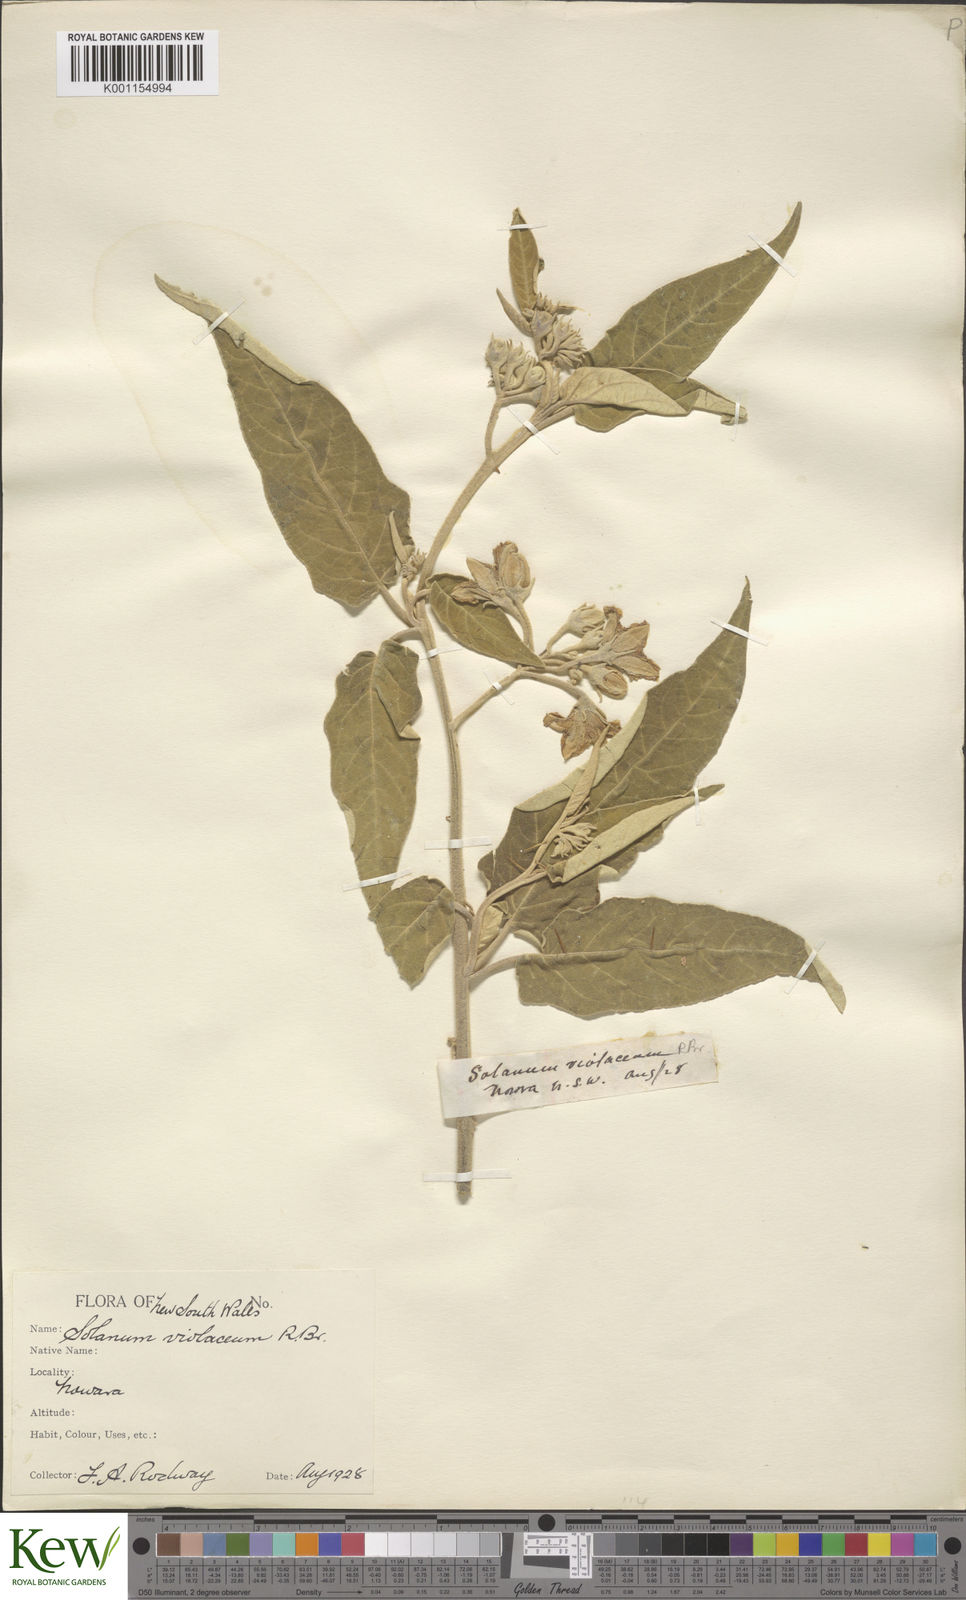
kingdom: Plantae
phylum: Tracheophyta
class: Magnoliopsida
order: Solanales
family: Solanaceae
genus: Solanum
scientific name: Solanum brownii
